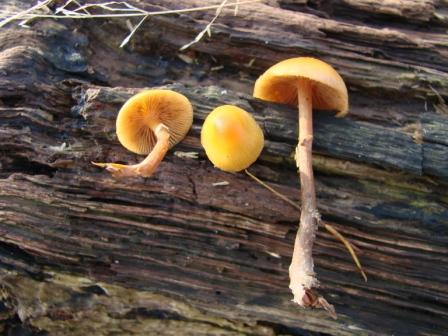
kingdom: Fungi
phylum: Basidiomycota
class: Agaricomycetes
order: Agaricales
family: Hymenogastraceae
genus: Galerina
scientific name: Galerina marginata
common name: randbæltet hjelmhat
